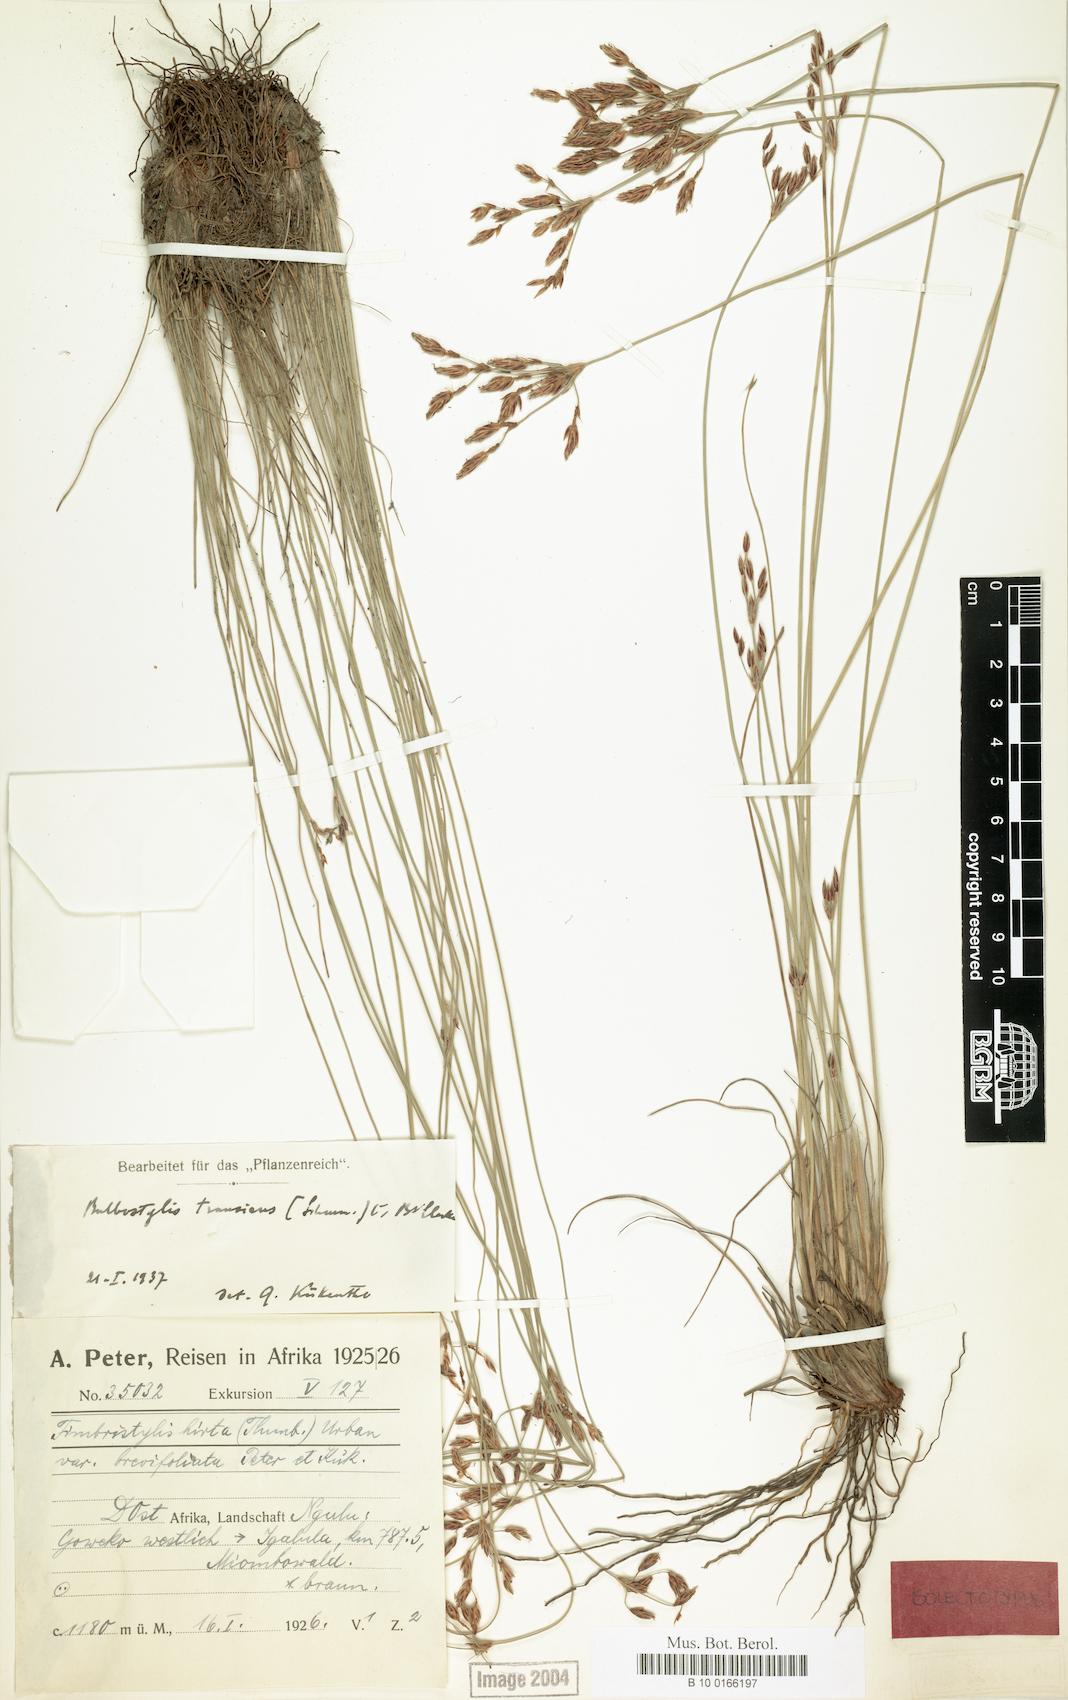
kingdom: Plantae
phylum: Tracheophyta
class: Liliopsida
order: Poales
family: Cyperaceae
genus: Bulbostylis
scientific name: Bulbostylis boeckeleriana
